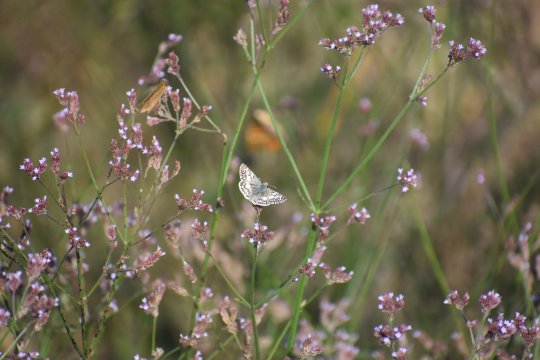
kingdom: Animalia
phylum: Arthropoda
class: Insecta
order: Lepidoptera
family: Hesperiidae
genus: Panoquina
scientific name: Panoquina ocola
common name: Ocola Skipper
